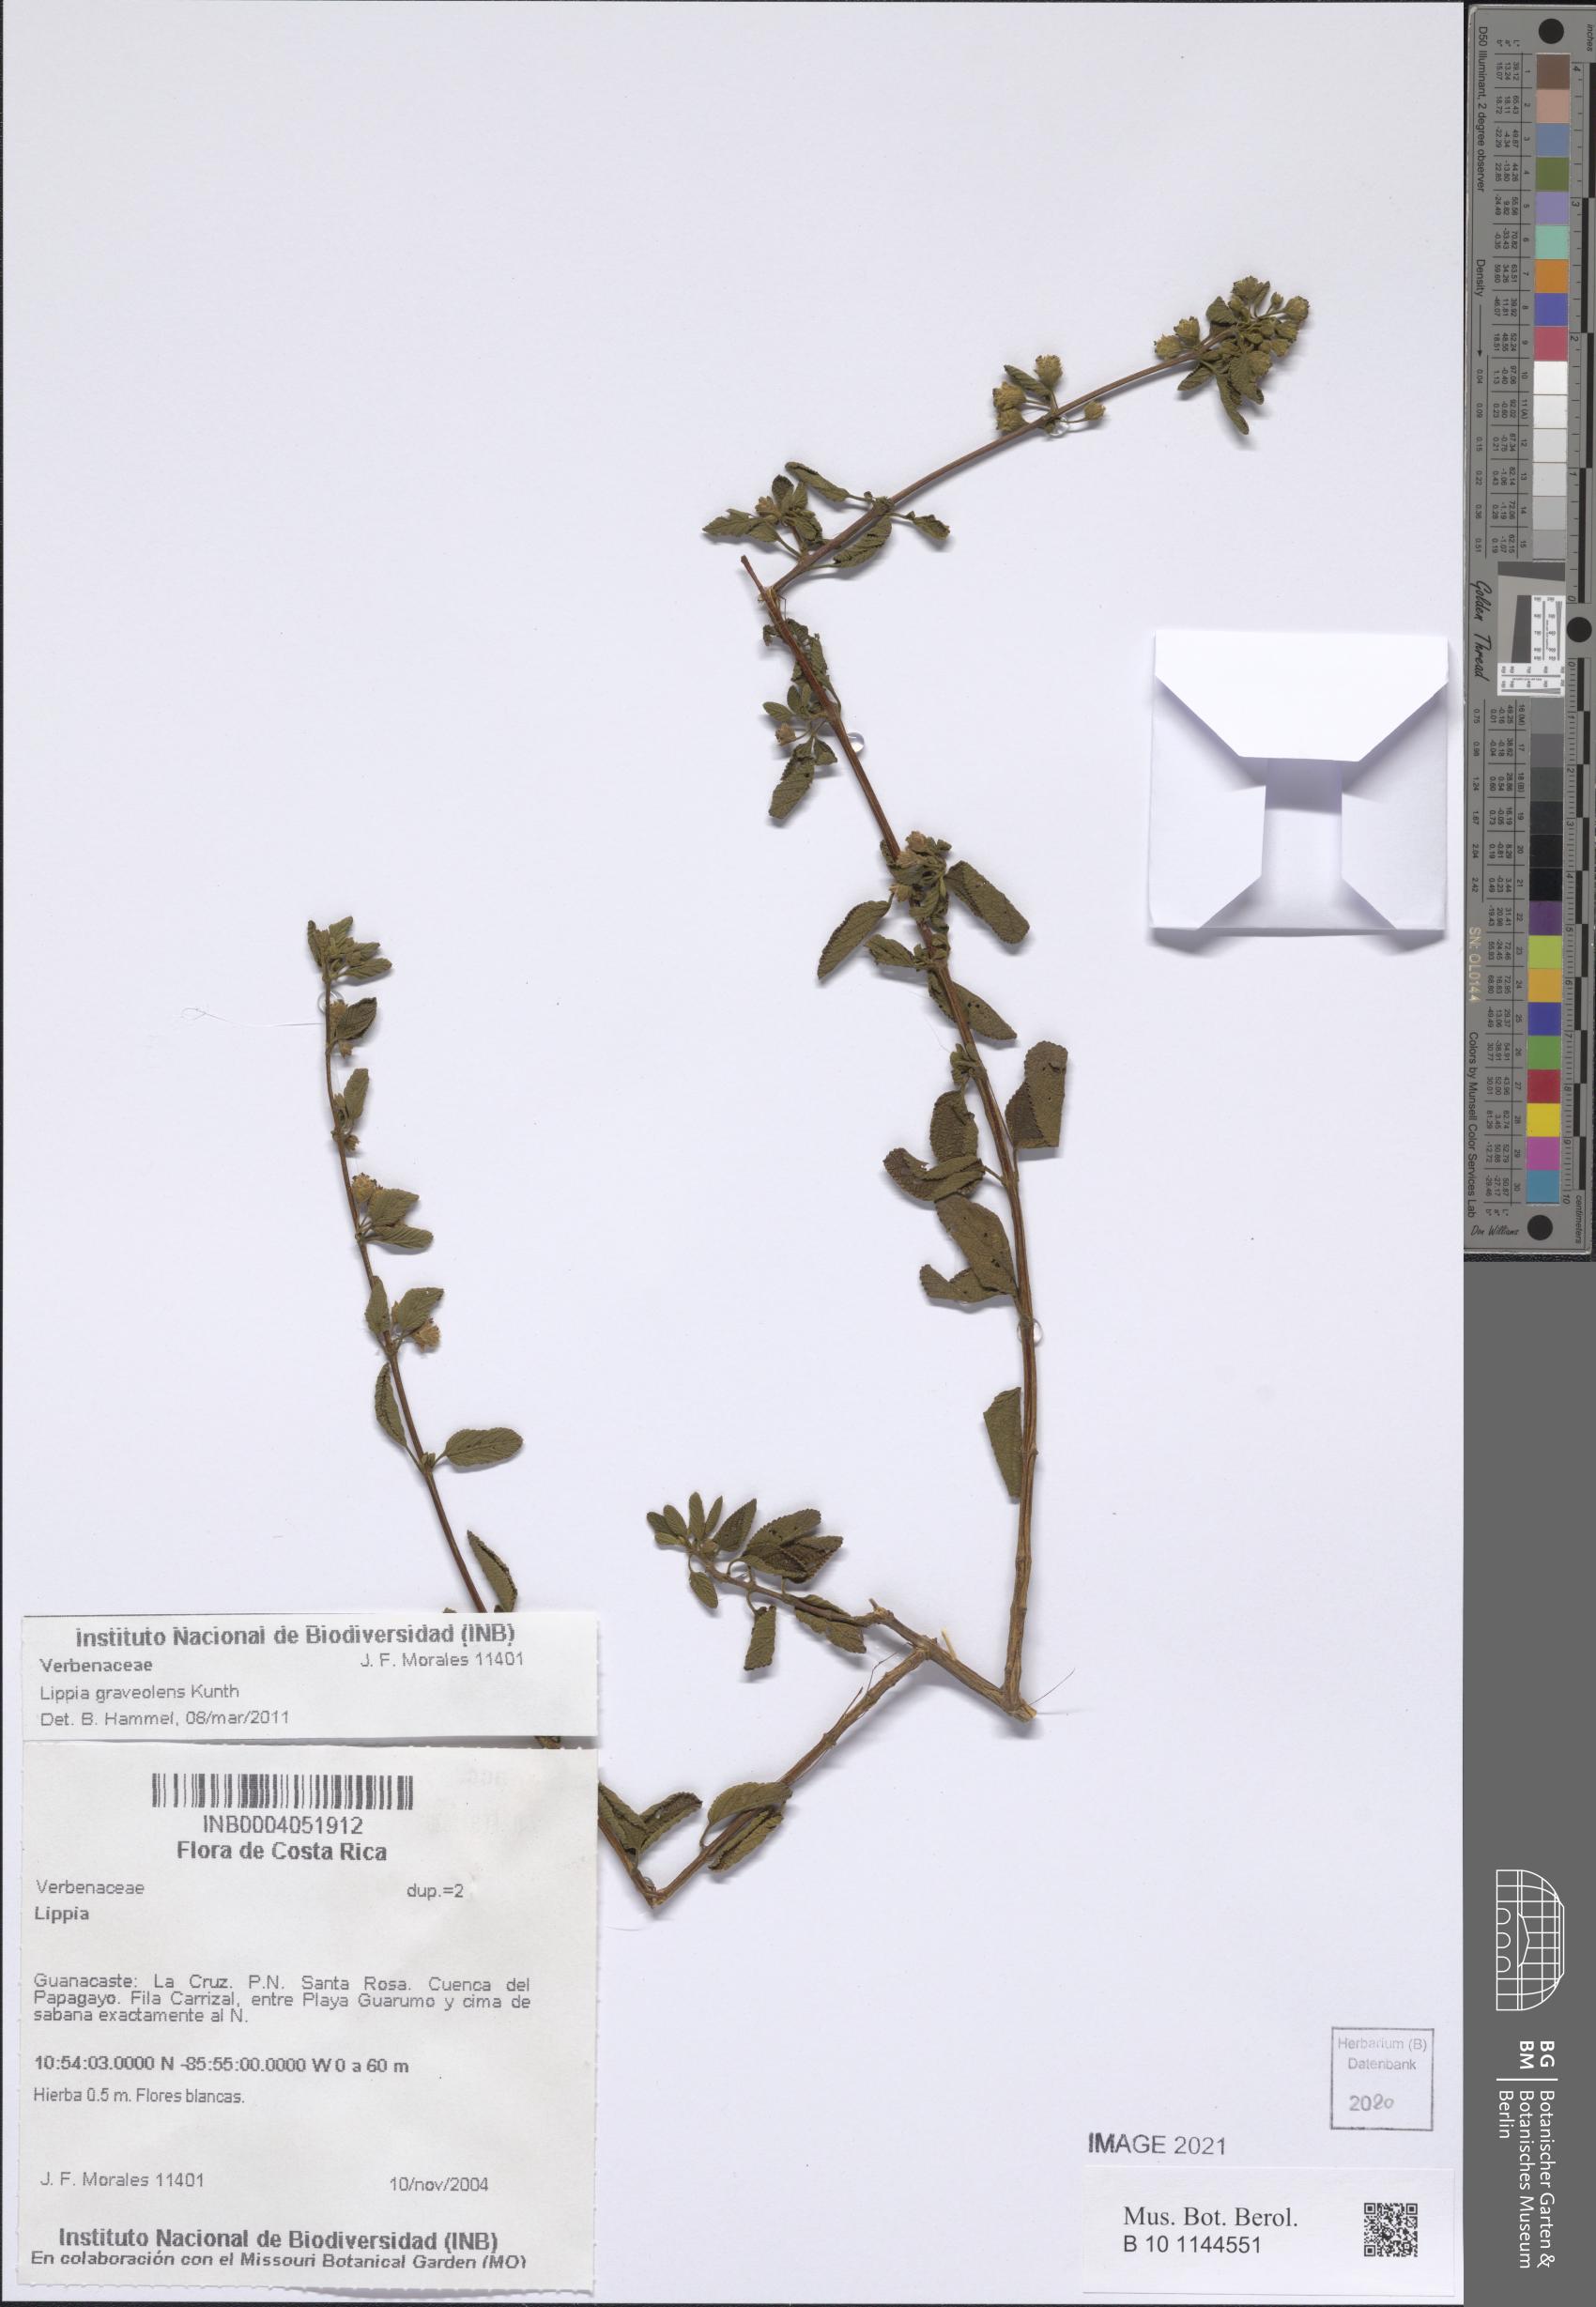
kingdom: Plantae
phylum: Tracheophyta
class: Magnoliopsida
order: Lamiales
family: Verbenaceae
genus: Lippia
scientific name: Lippia origanoides
